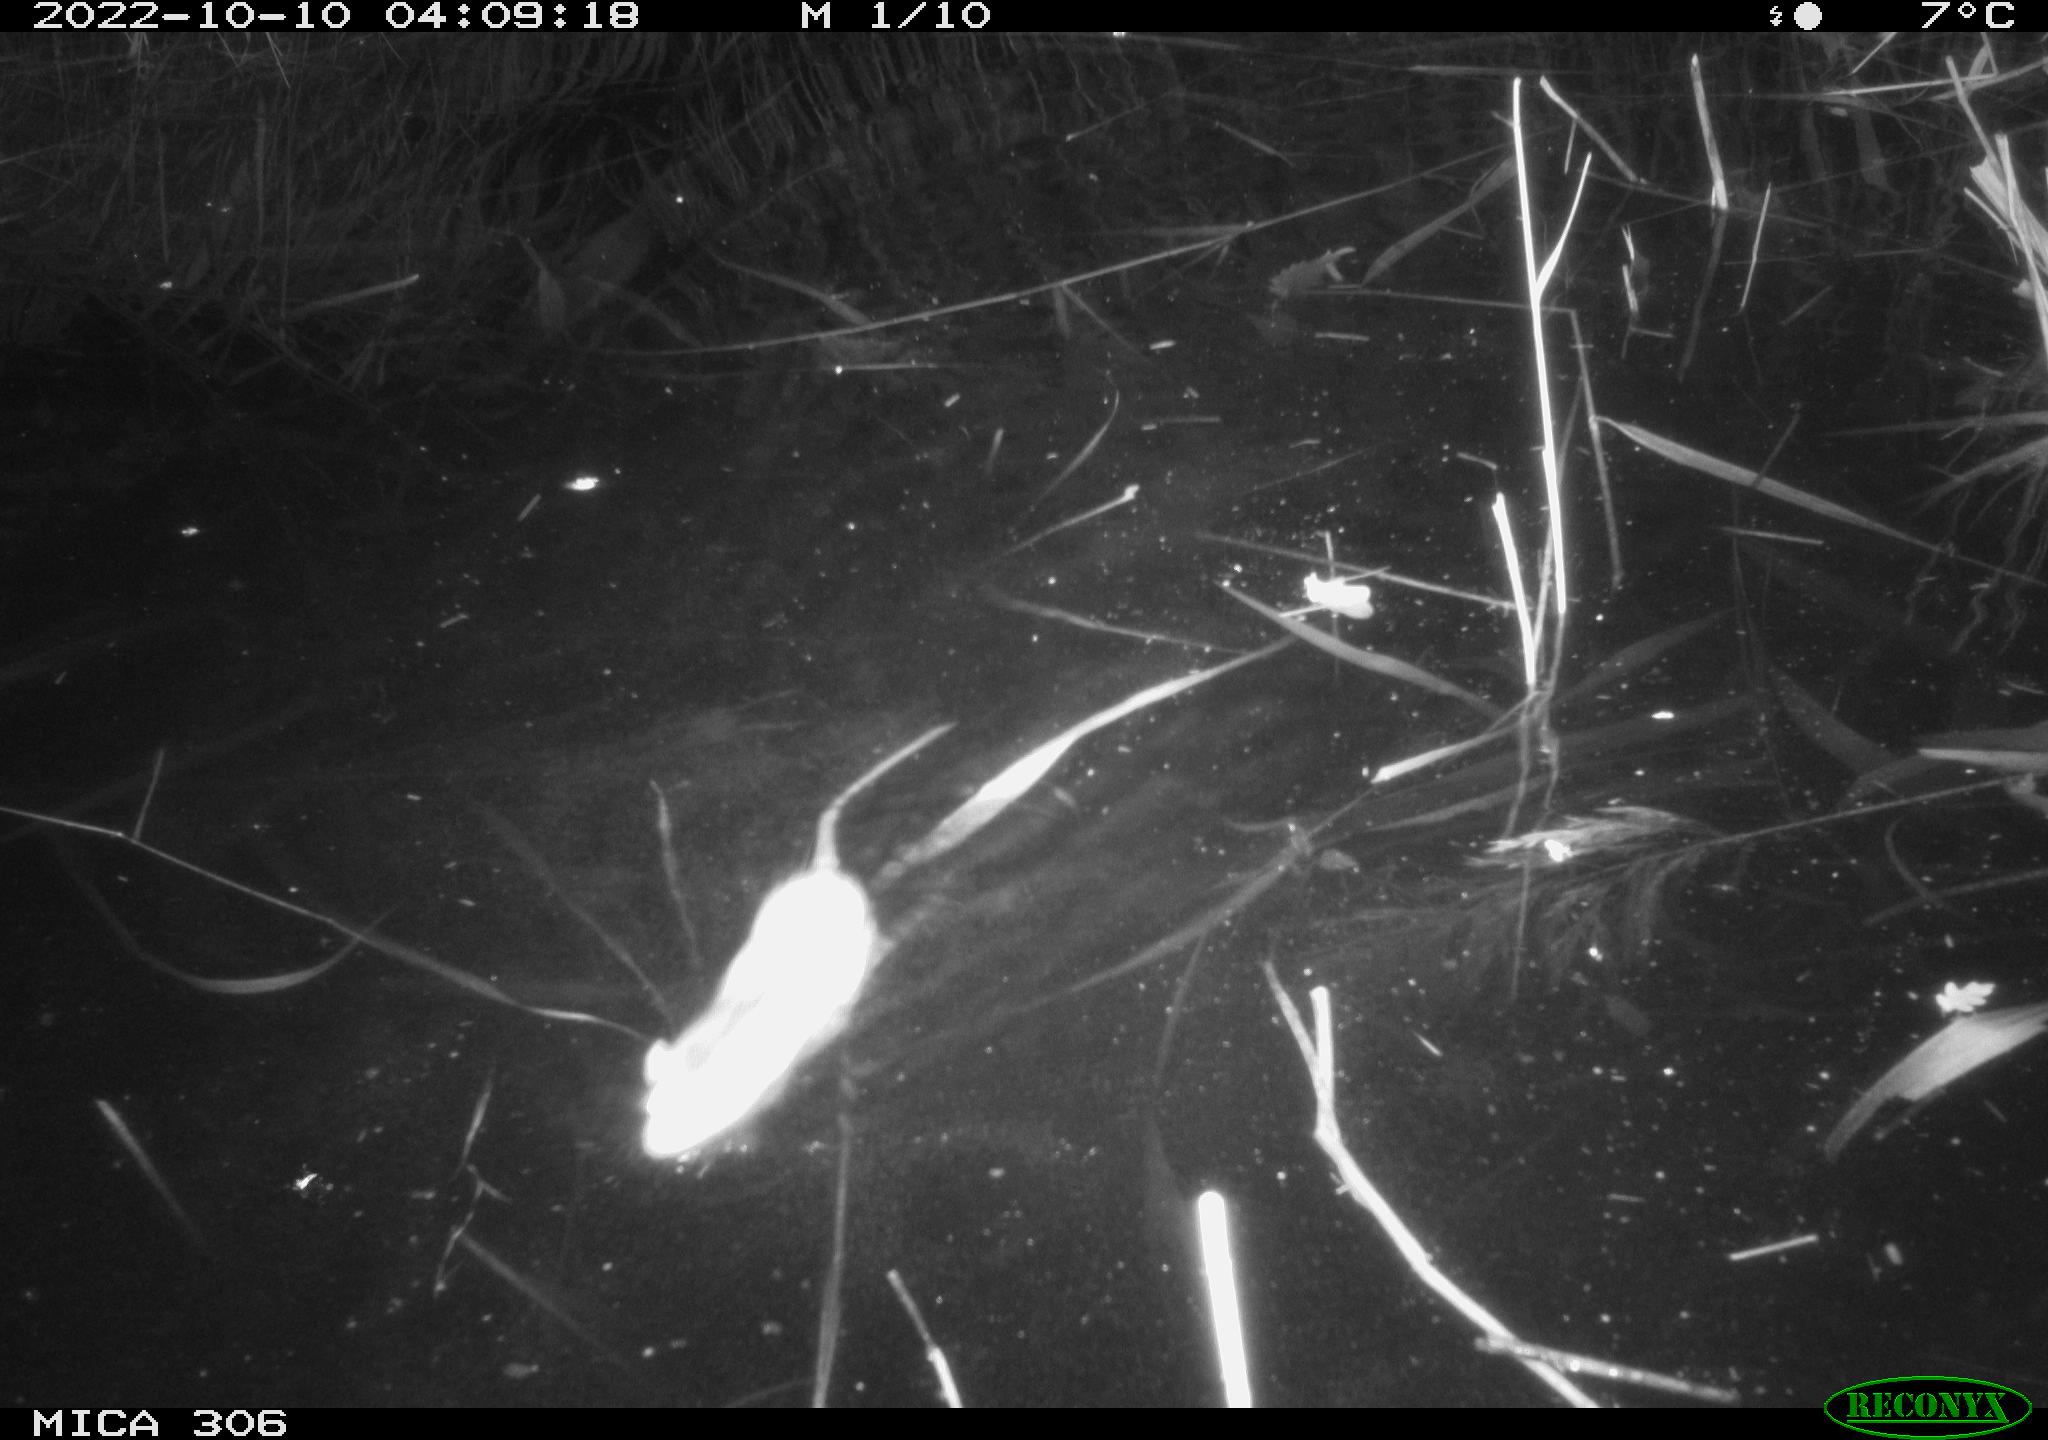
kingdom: Animalia
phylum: Chordata
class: Mammalia
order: Rodentia
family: Muridae
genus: Rattus
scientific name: Rattus norvegicus
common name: Brown rat
